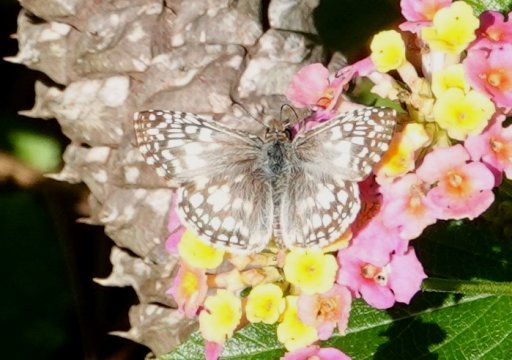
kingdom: Animalia
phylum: Arthropoda
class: Insecta
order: Lepidoptera
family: Hesperiidae
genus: Pyrgus
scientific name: Pyrgus oileus
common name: Tropical Checkered-Skipper
